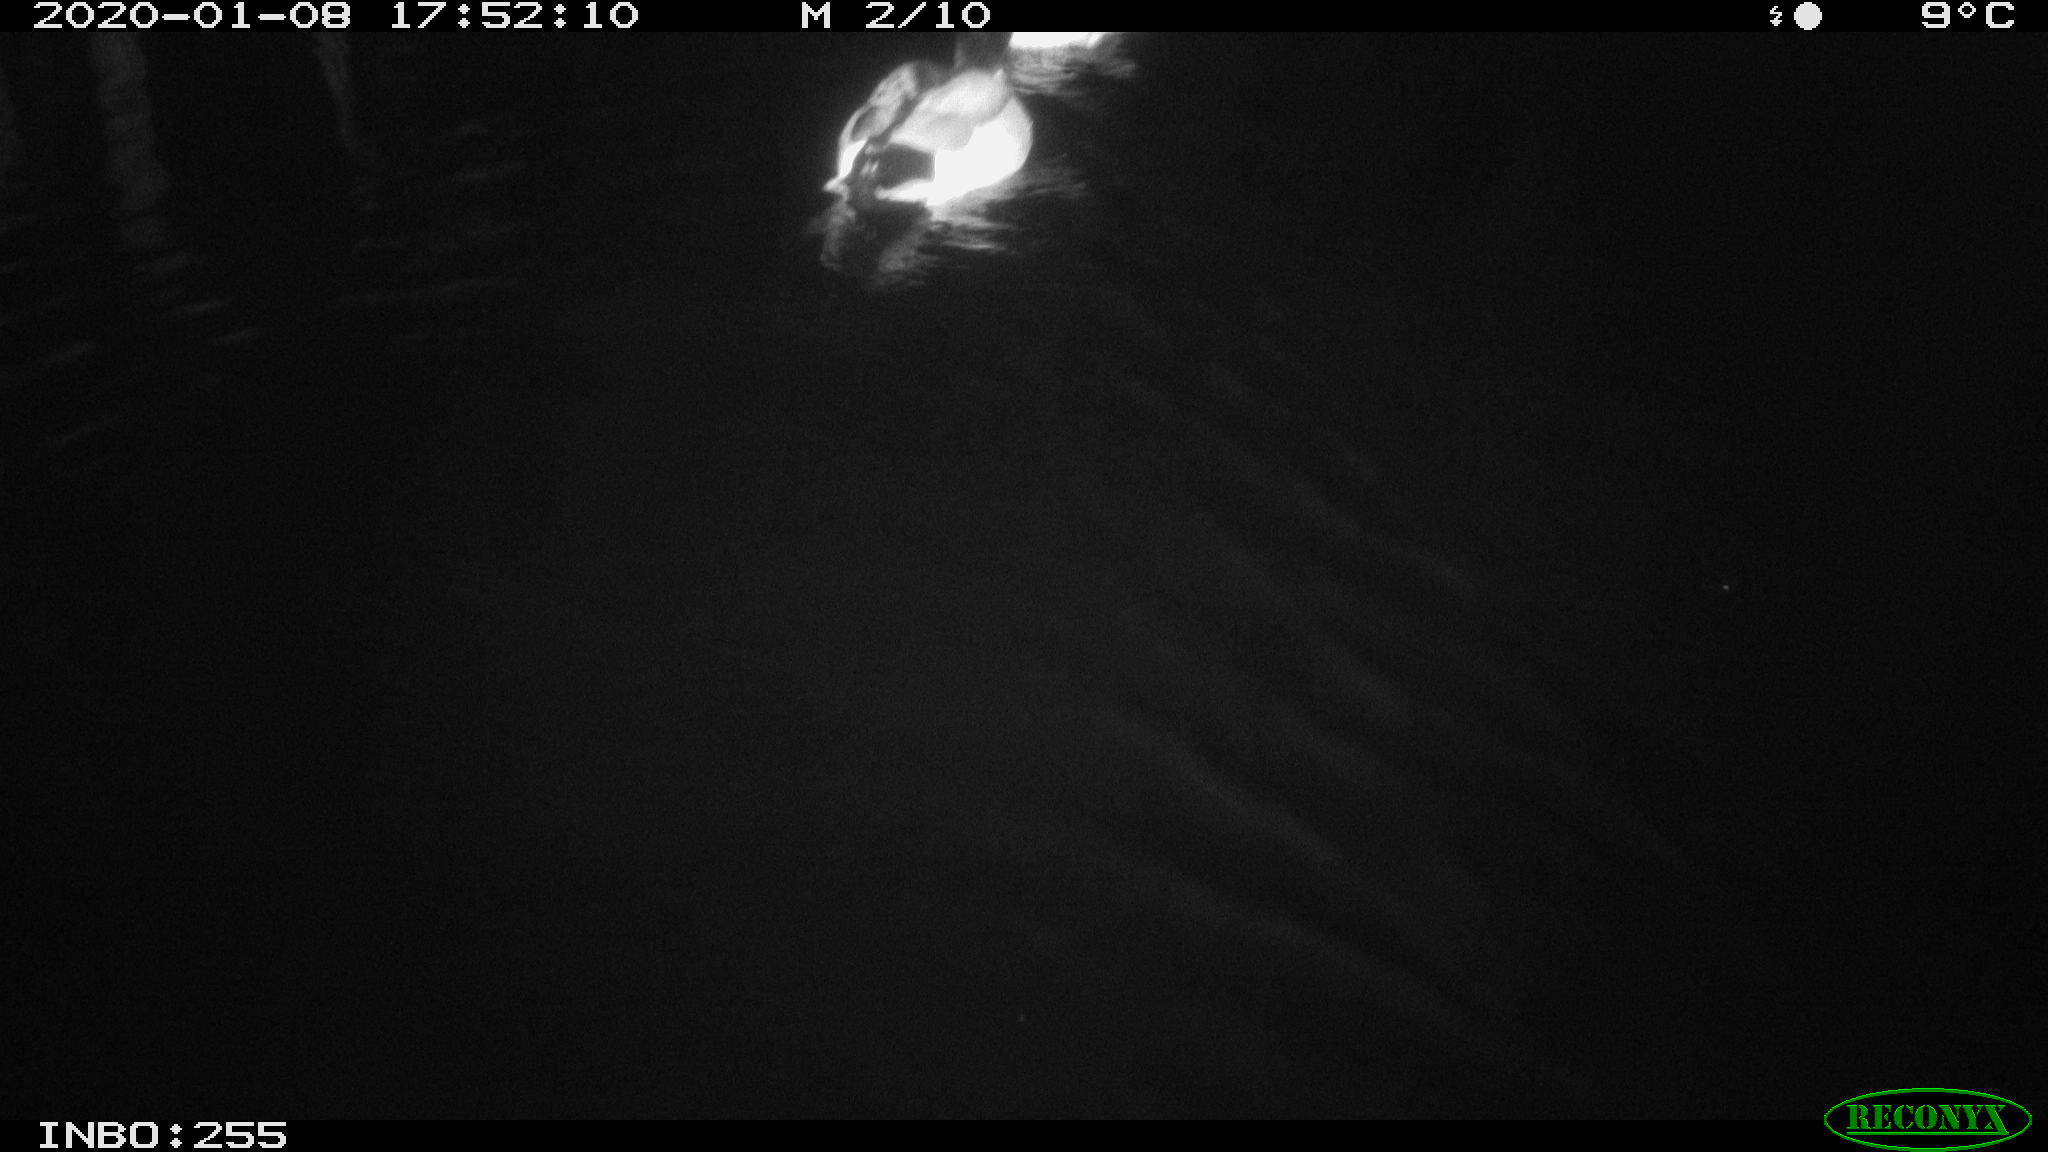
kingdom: Animalia
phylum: Chordata
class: Aves
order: Anseriformes
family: Anatidae
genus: Anas
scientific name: Anas platyrhynchos
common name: Mallard
